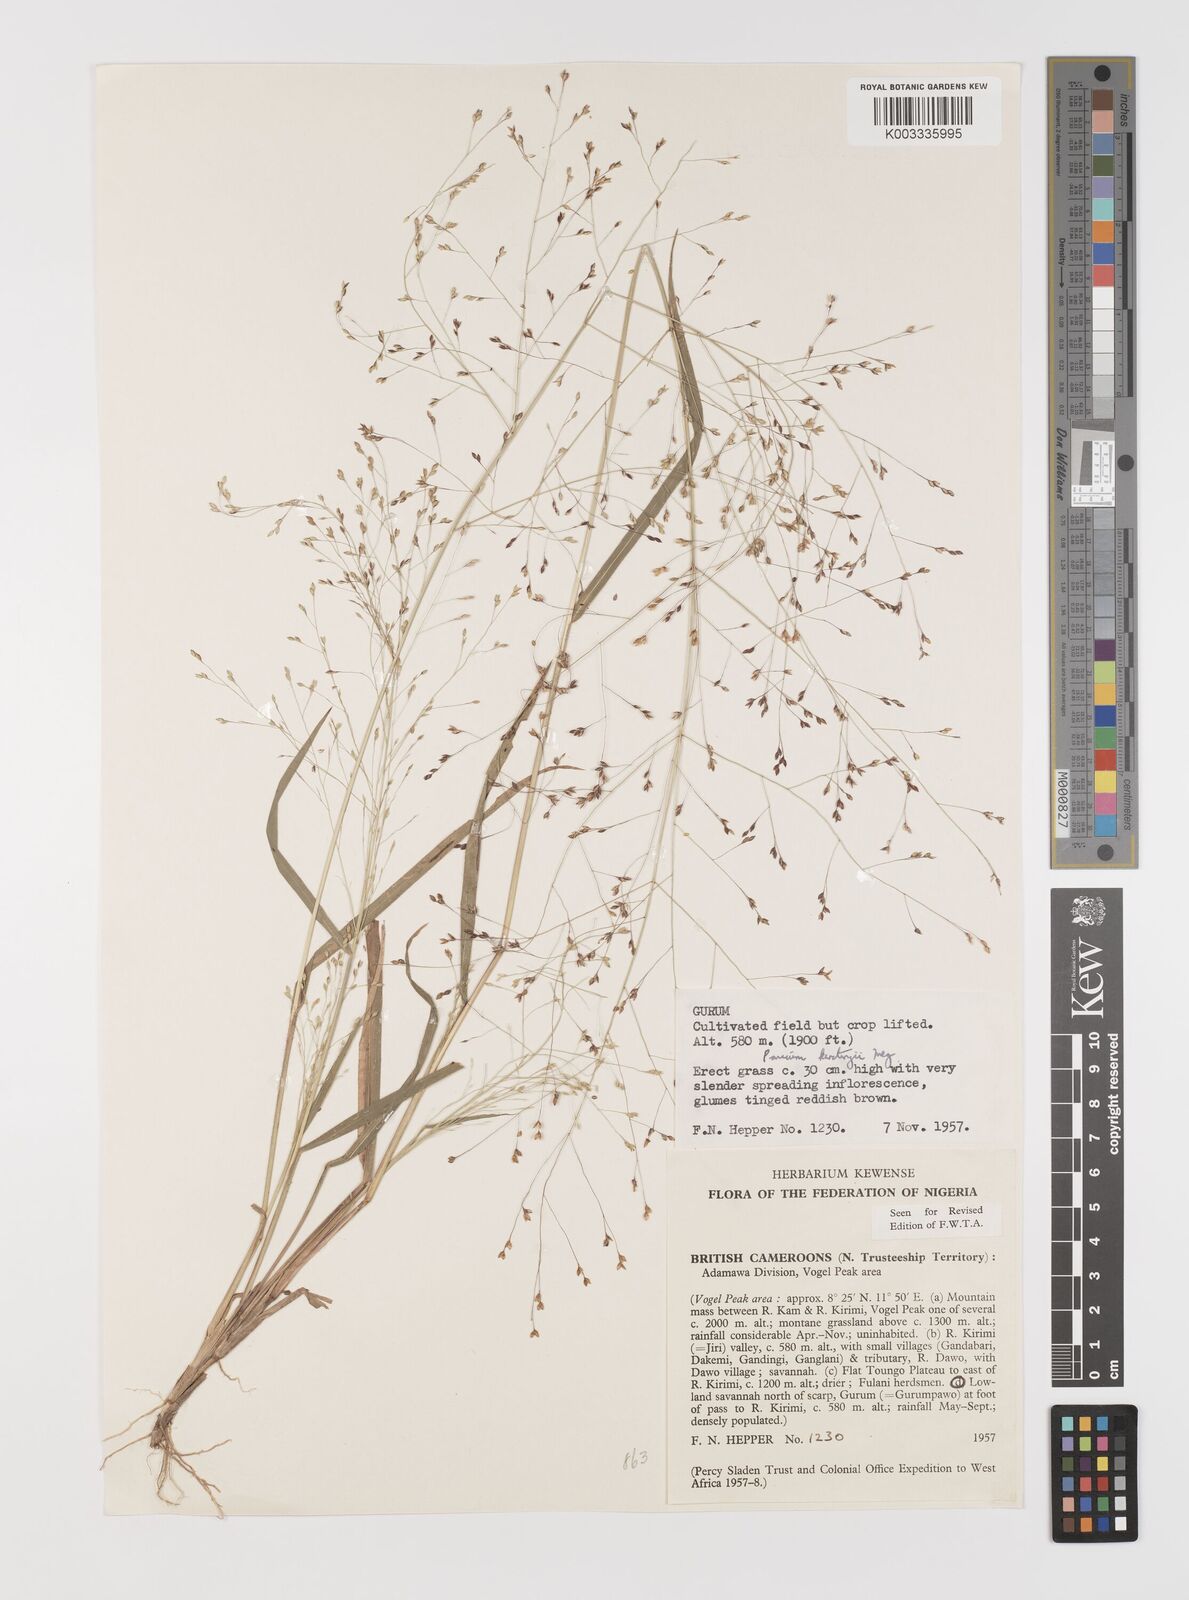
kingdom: Plantae
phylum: Tracheophyta
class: Liliopsida
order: Poales
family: Poaceae
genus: Panicum
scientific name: Panicum pansum
